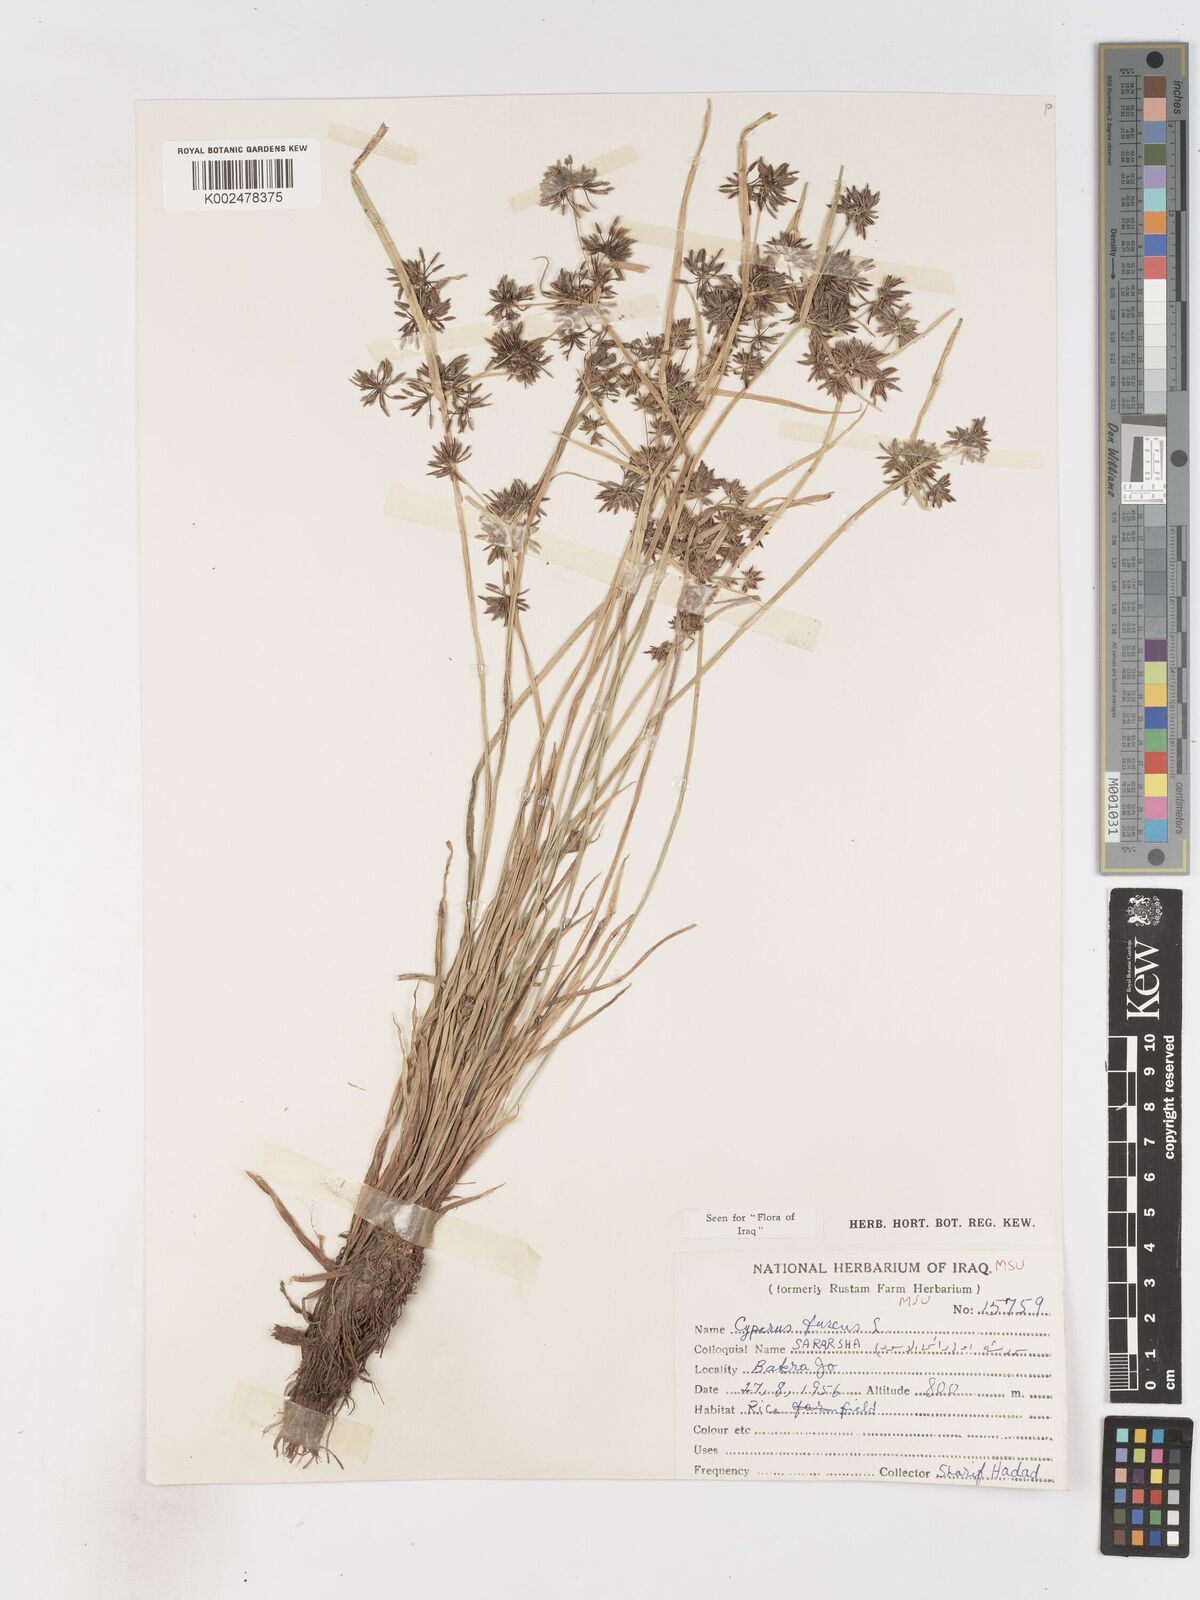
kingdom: Plantae
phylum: Tracheophyta
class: Liliopsida
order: Poales
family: Cyperaceae
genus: Cyperus
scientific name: Cyperus fuscus
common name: Brown galingale
